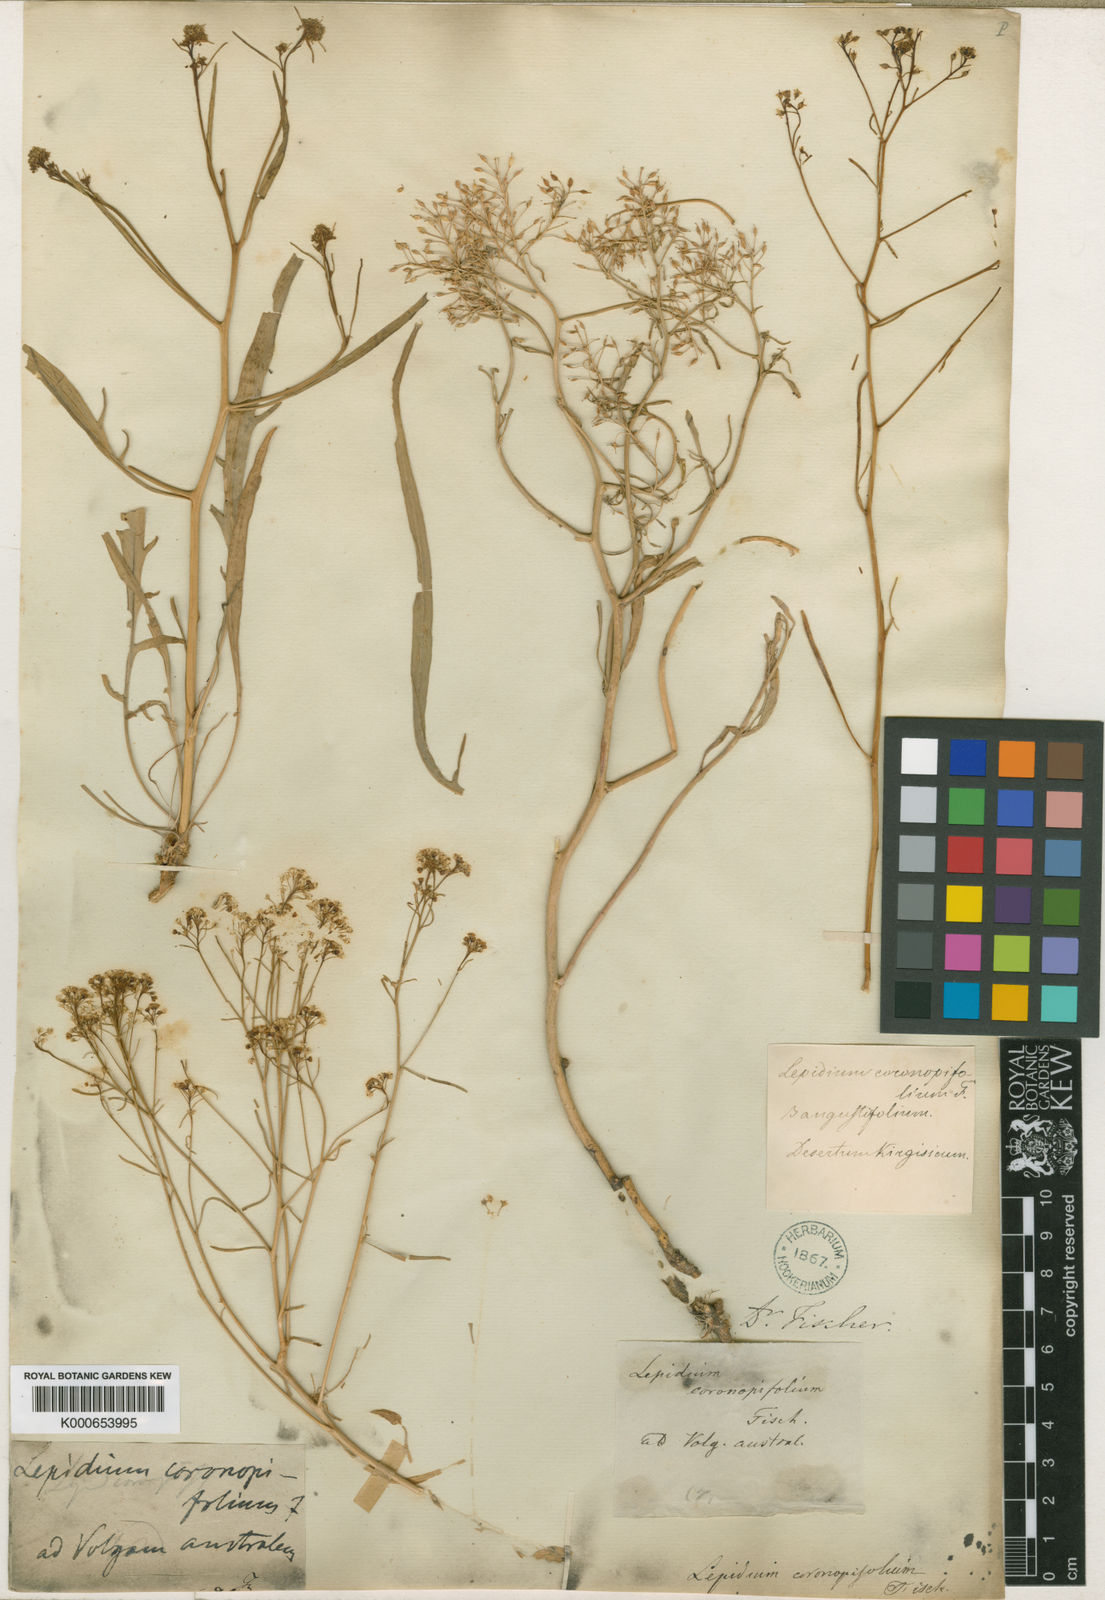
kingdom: Plantae
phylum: Tracheophyta
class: Magnoliopsida
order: Brassicales
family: Brassicaceae
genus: Lepidium
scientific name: Lepidium lyratum
